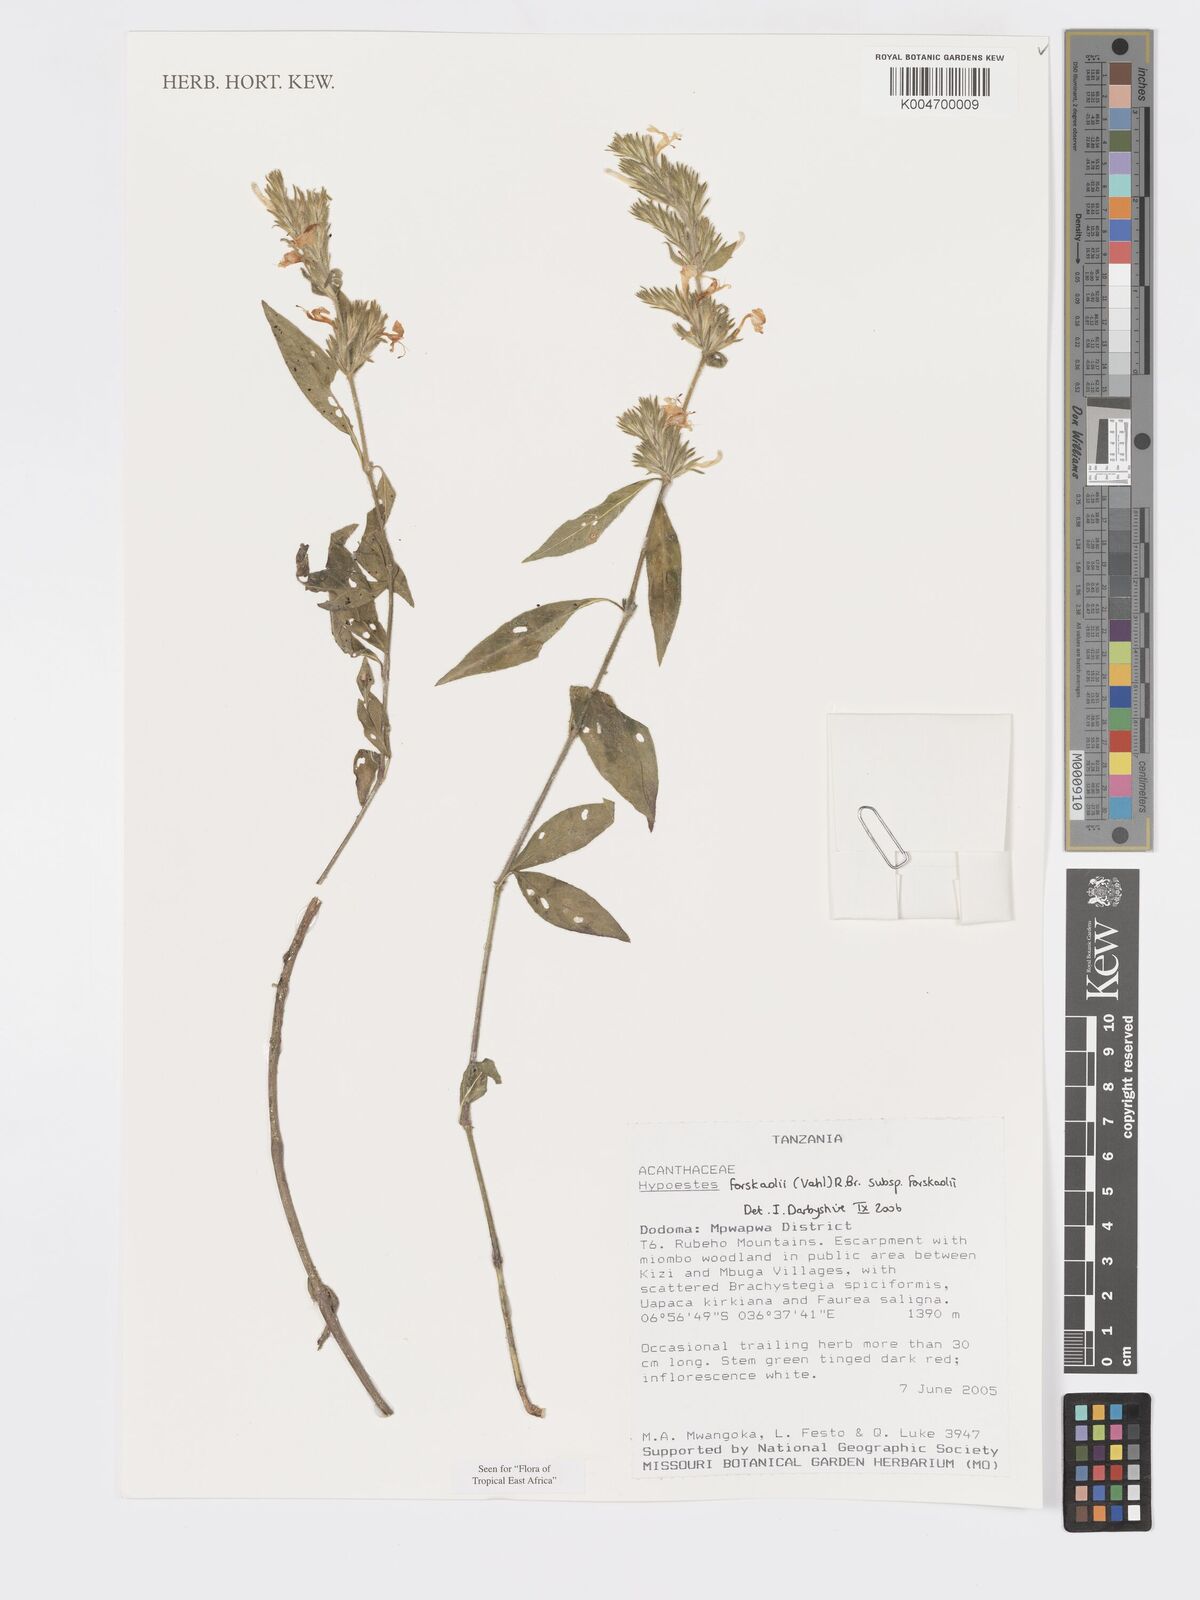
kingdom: Plantae
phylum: Tracheophyta
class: Magnoliopsida
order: Lamiales
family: Acanthaceae
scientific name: Acanthaceae
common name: Acanthaceae
